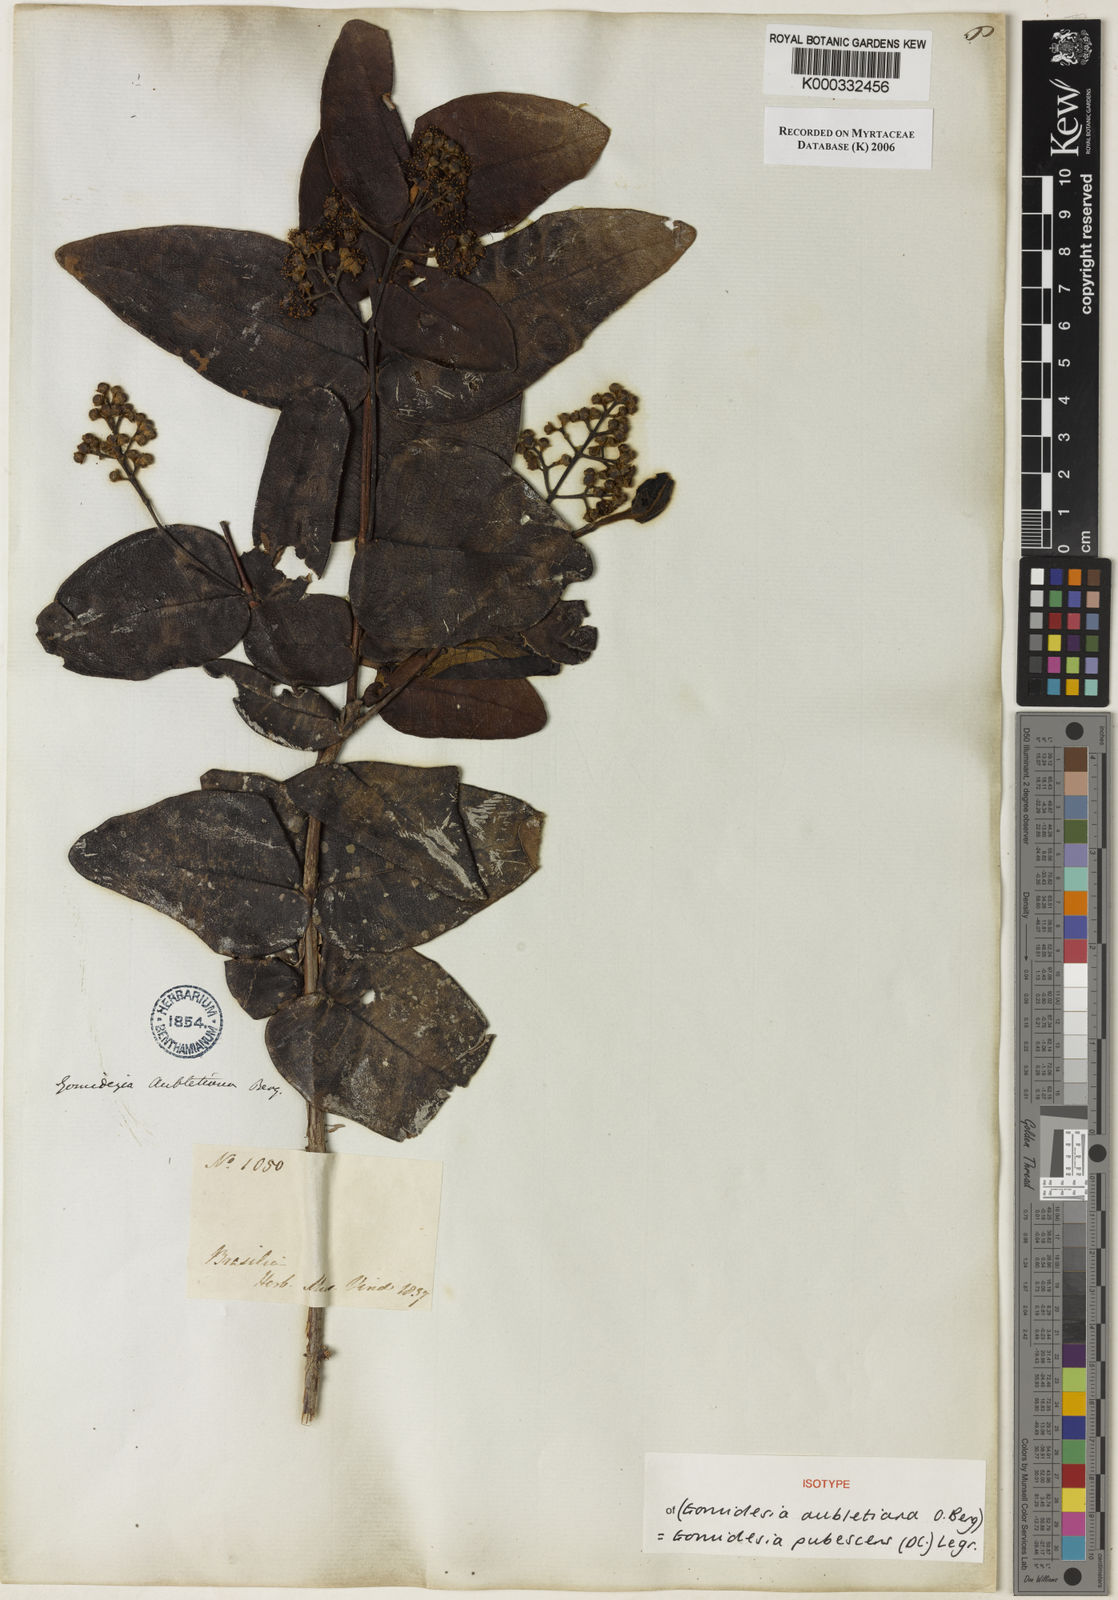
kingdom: Plantae
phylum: Tracheophyta
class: Magnoliopsida
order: Myrtales
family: Myrtaceae
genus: Myrcia
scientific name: Myrcia pubescens
